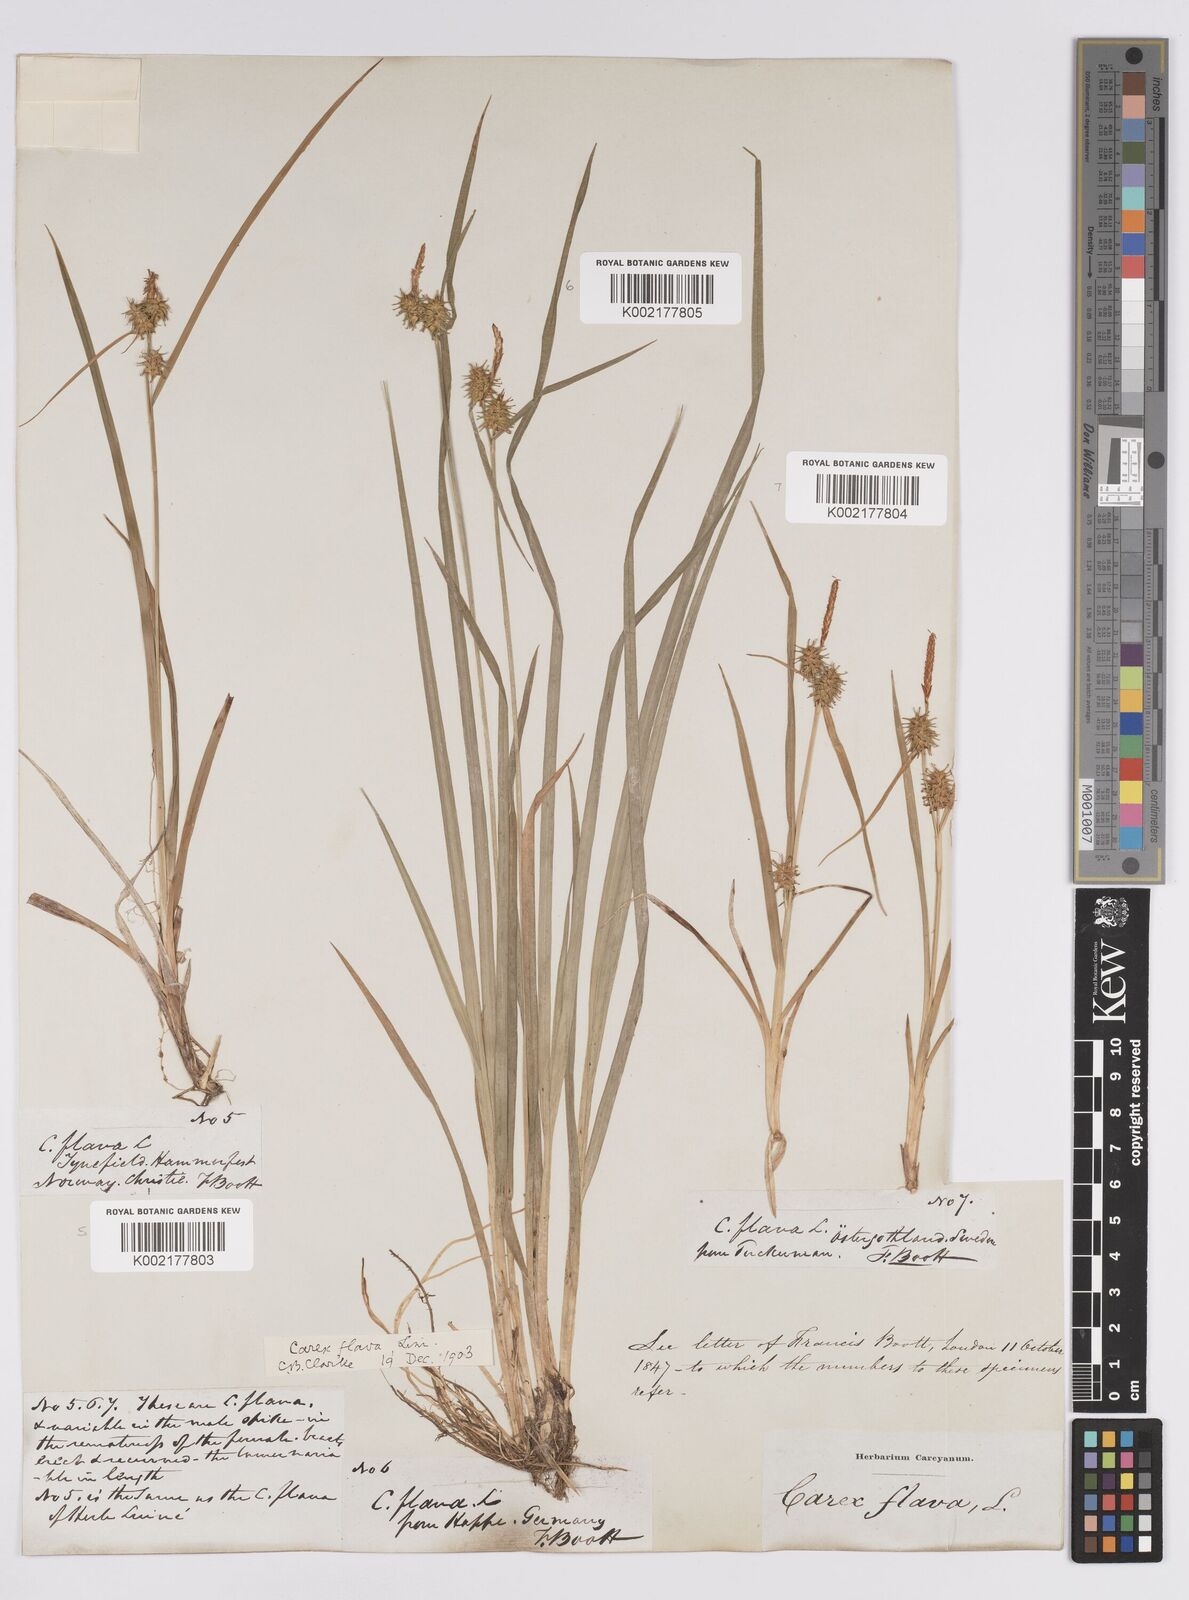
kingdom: Plantae
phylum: Tracheophyta
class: Liliopsida
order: Poales
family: Cyperaceae
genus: Carex
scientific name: Carex flava
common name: Large yellow-sedge
